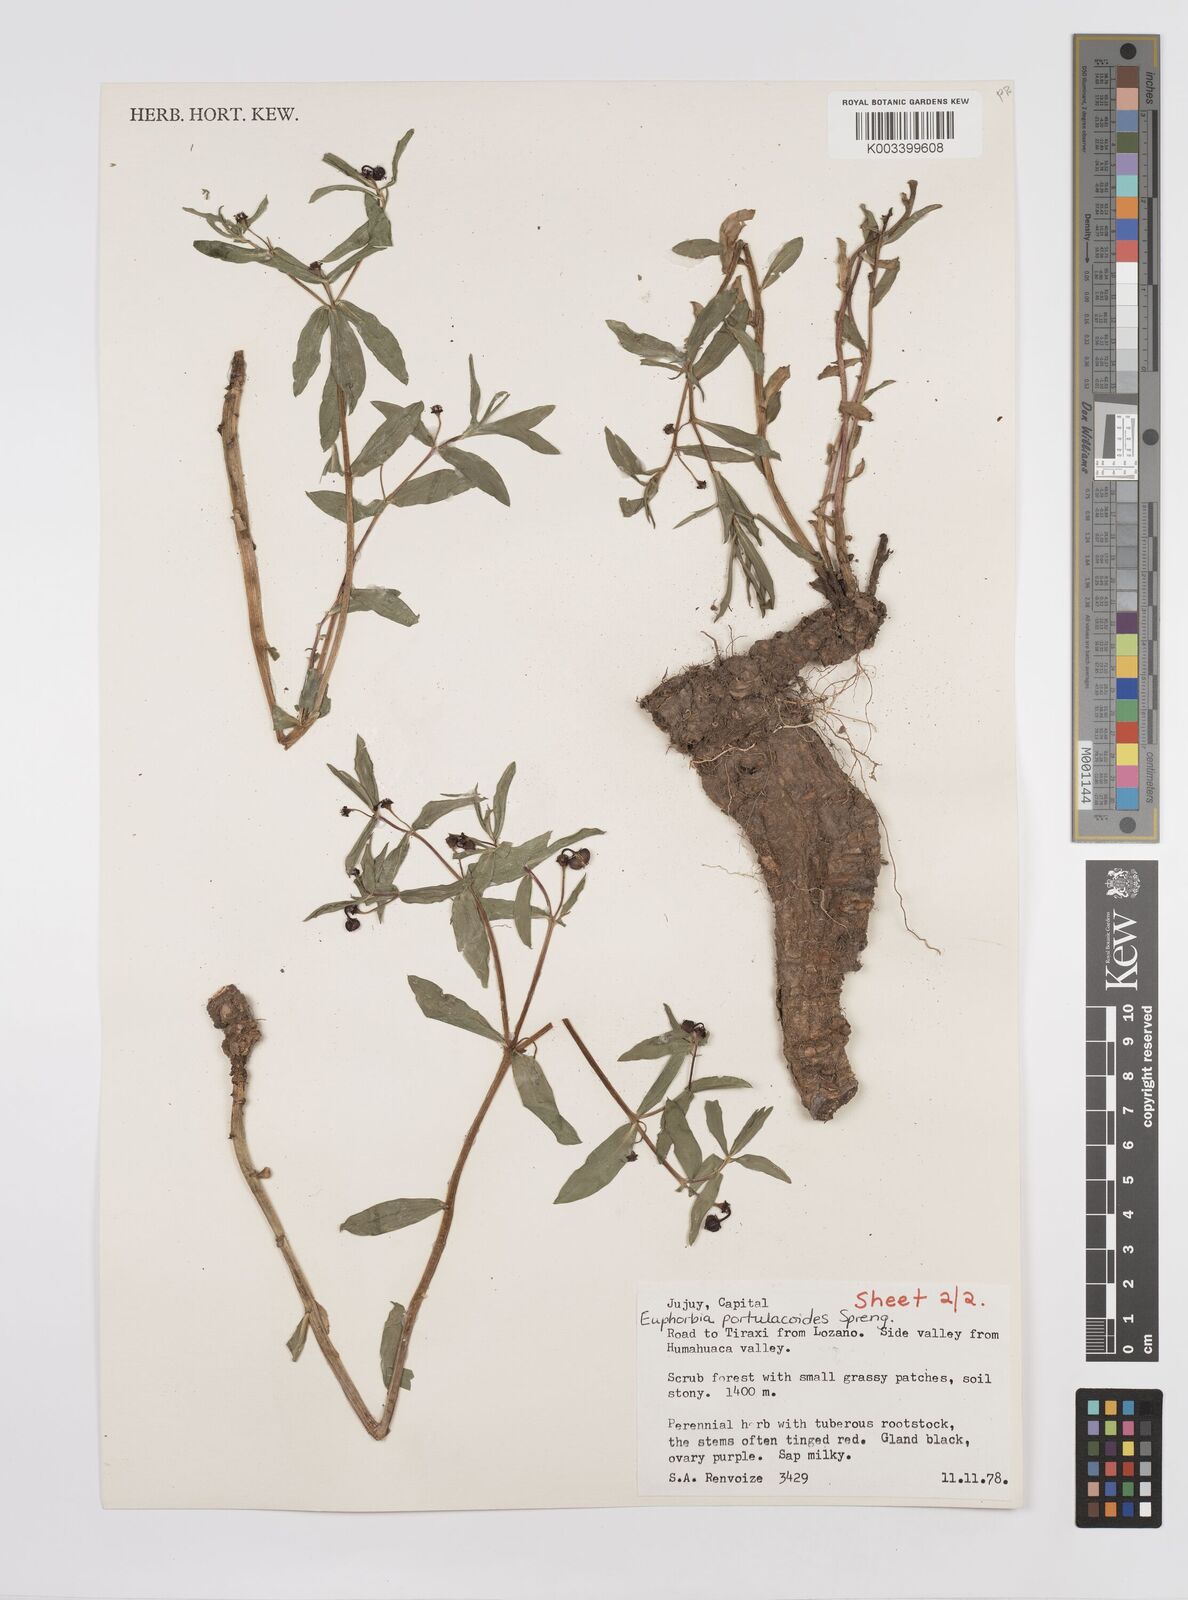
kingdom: Plantae
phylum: Tracheophyta
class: Magnoliopsida
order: Malpighiales
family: Euphorbiaceae
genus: Euphorbia
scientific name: Euphorbia portulacoides
